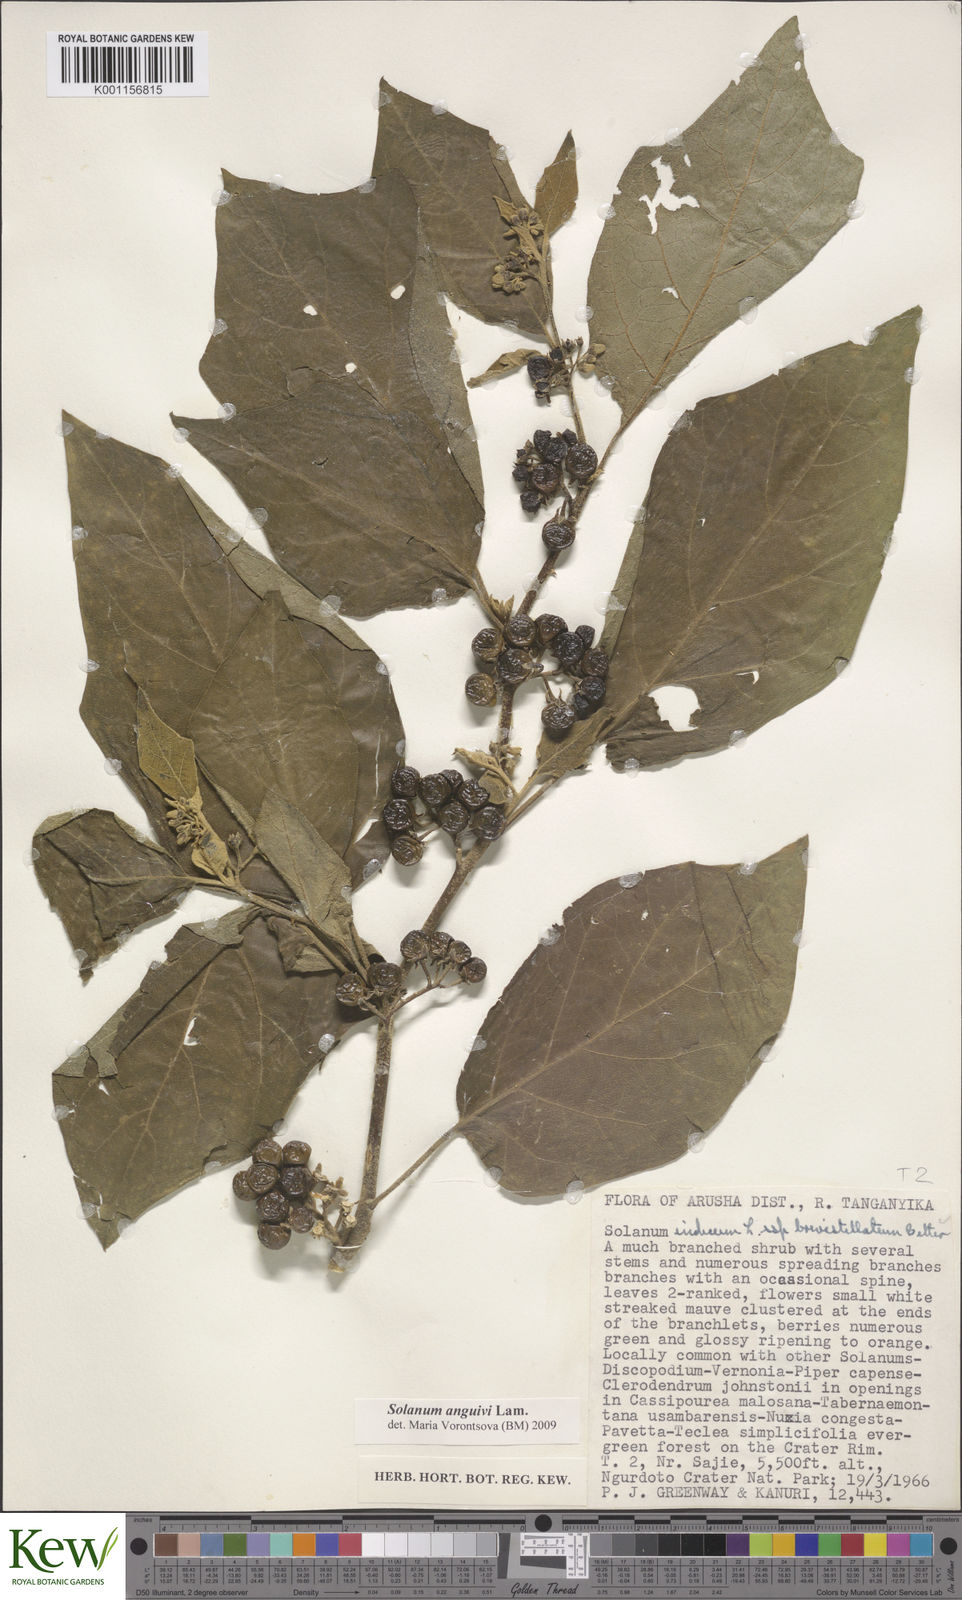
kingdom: Plantae
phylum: Tracheophyta
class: Magnoliopsida
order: Solanales
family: Solanaceae
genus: Solanum
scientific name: Solanum anguivi
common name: Forest bitterberry
